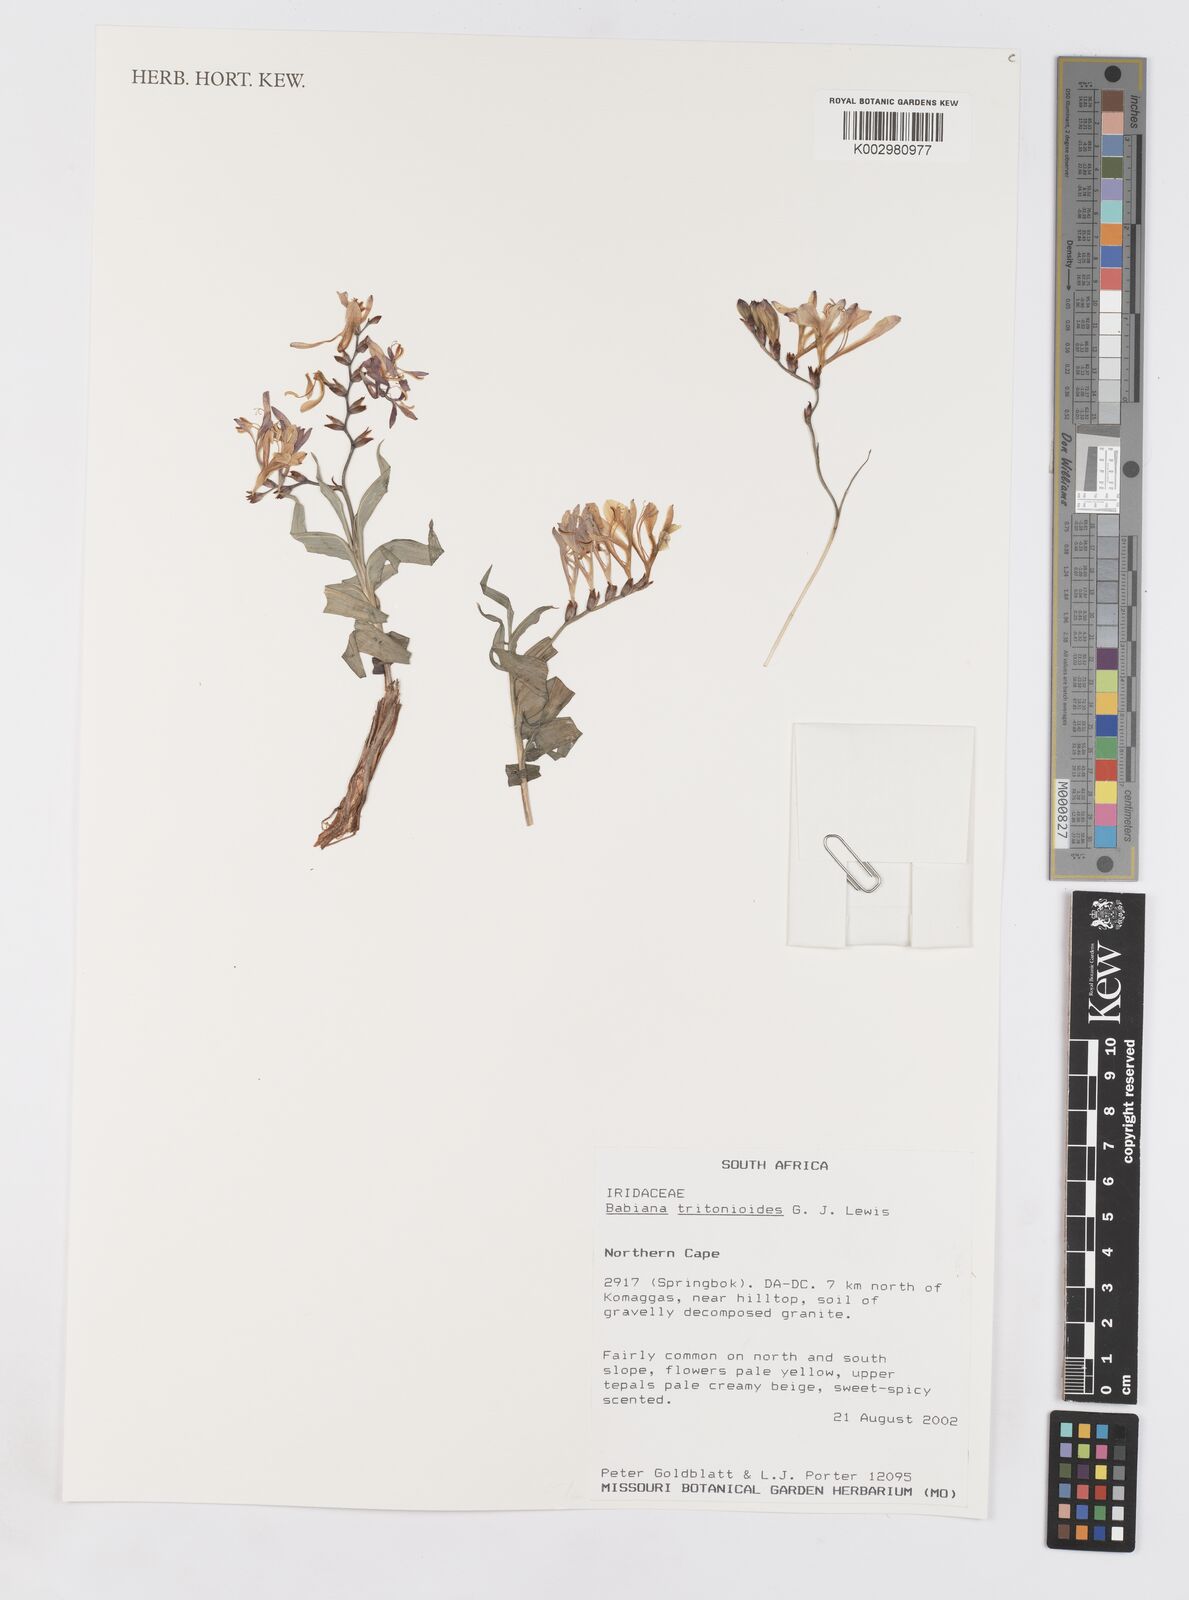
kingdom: Plantae
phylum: Tracheophyta
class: Liliopsida
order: Asparagales
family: Iridaceae
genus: Babiana
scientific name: Babiana tritonioides
